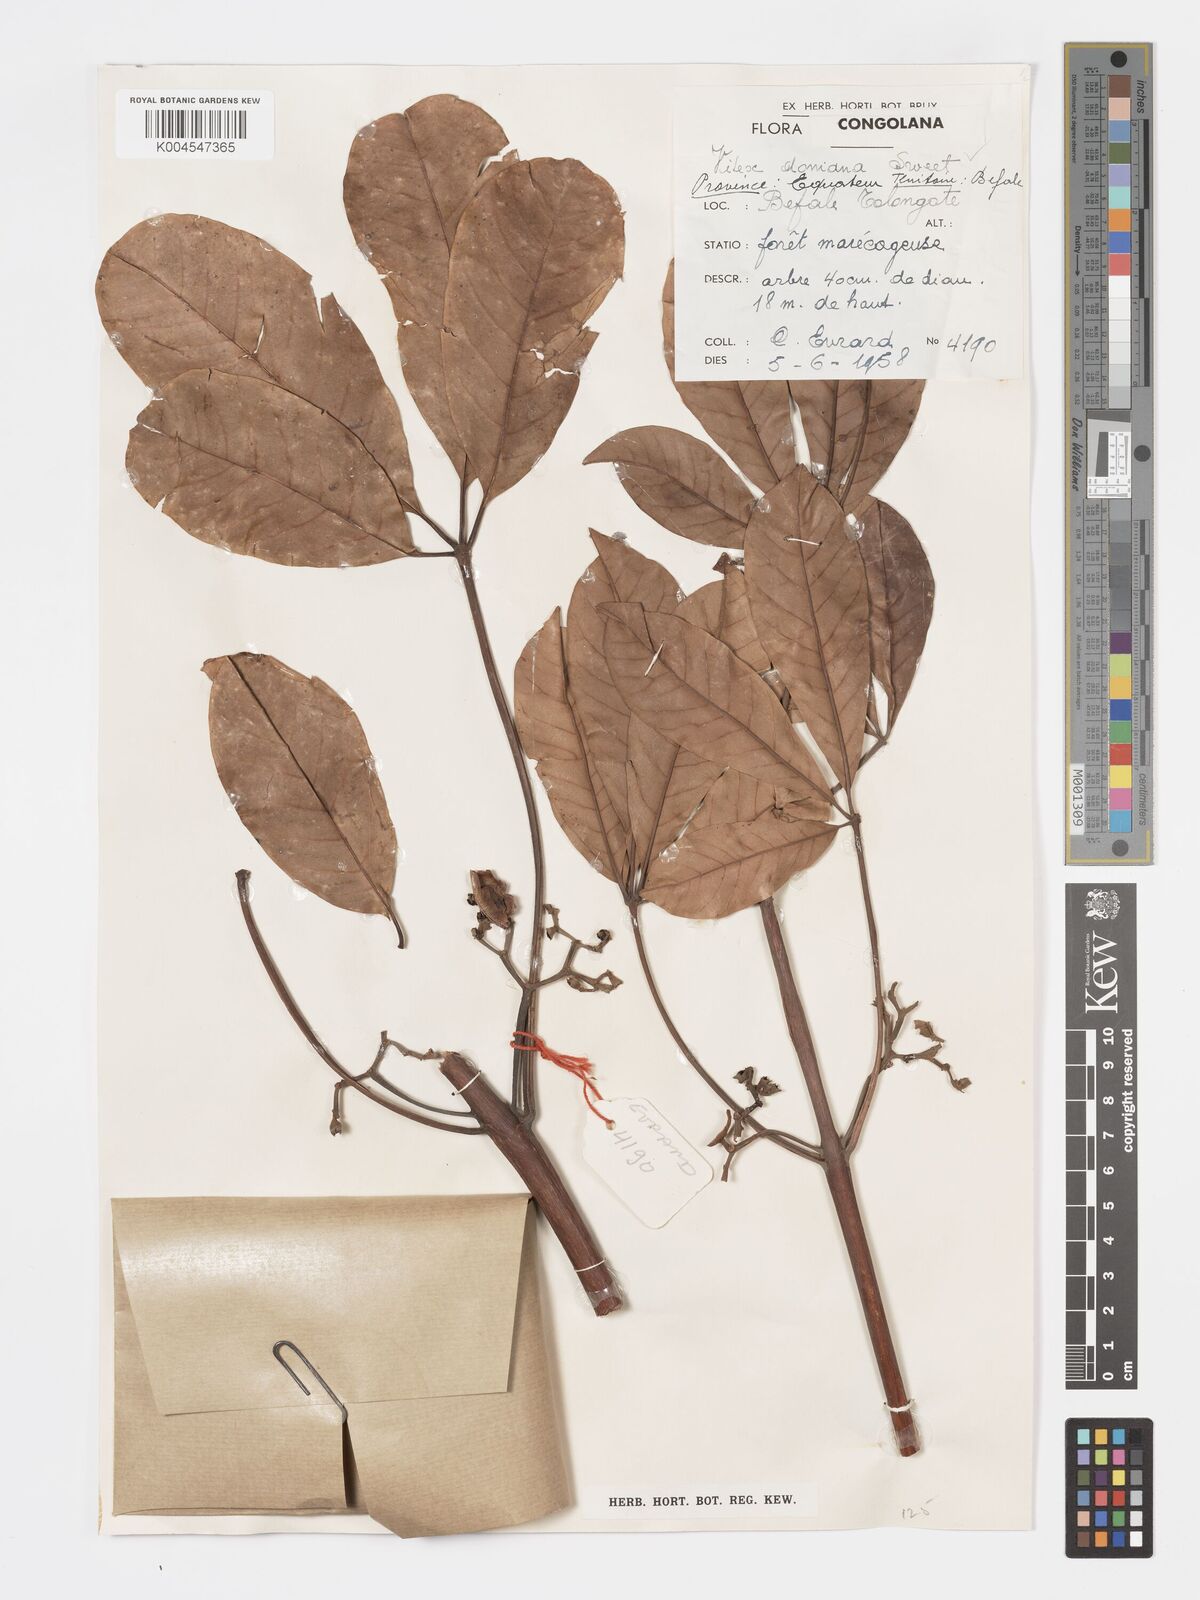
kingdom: Plantae
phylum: Tracheophyta
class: Magnoliopsida
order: Lamiales
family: Lamiaceae
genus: Vitex
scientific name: Vitex doniana
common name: Black plum
